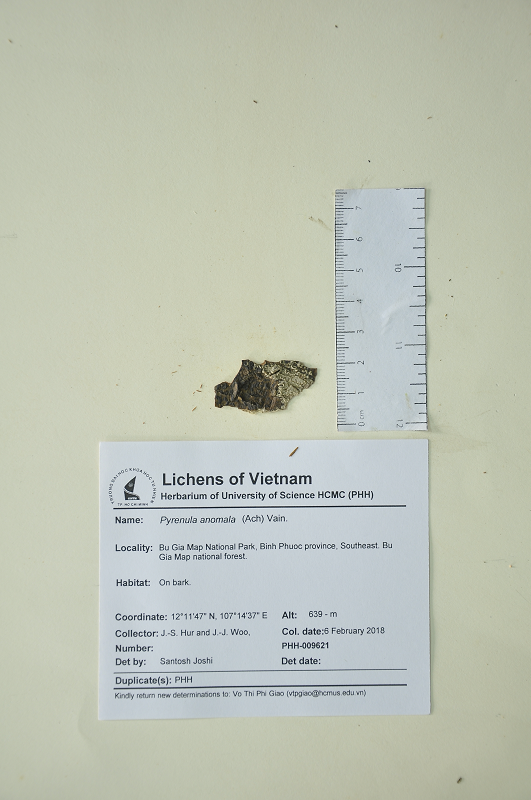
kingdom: Fungi
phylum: Ascomycota
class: Eurotiomycetes
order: Pyrenulales
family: Pyrenulaceae
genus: Pyrenula
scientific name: Pyrenula anomala
